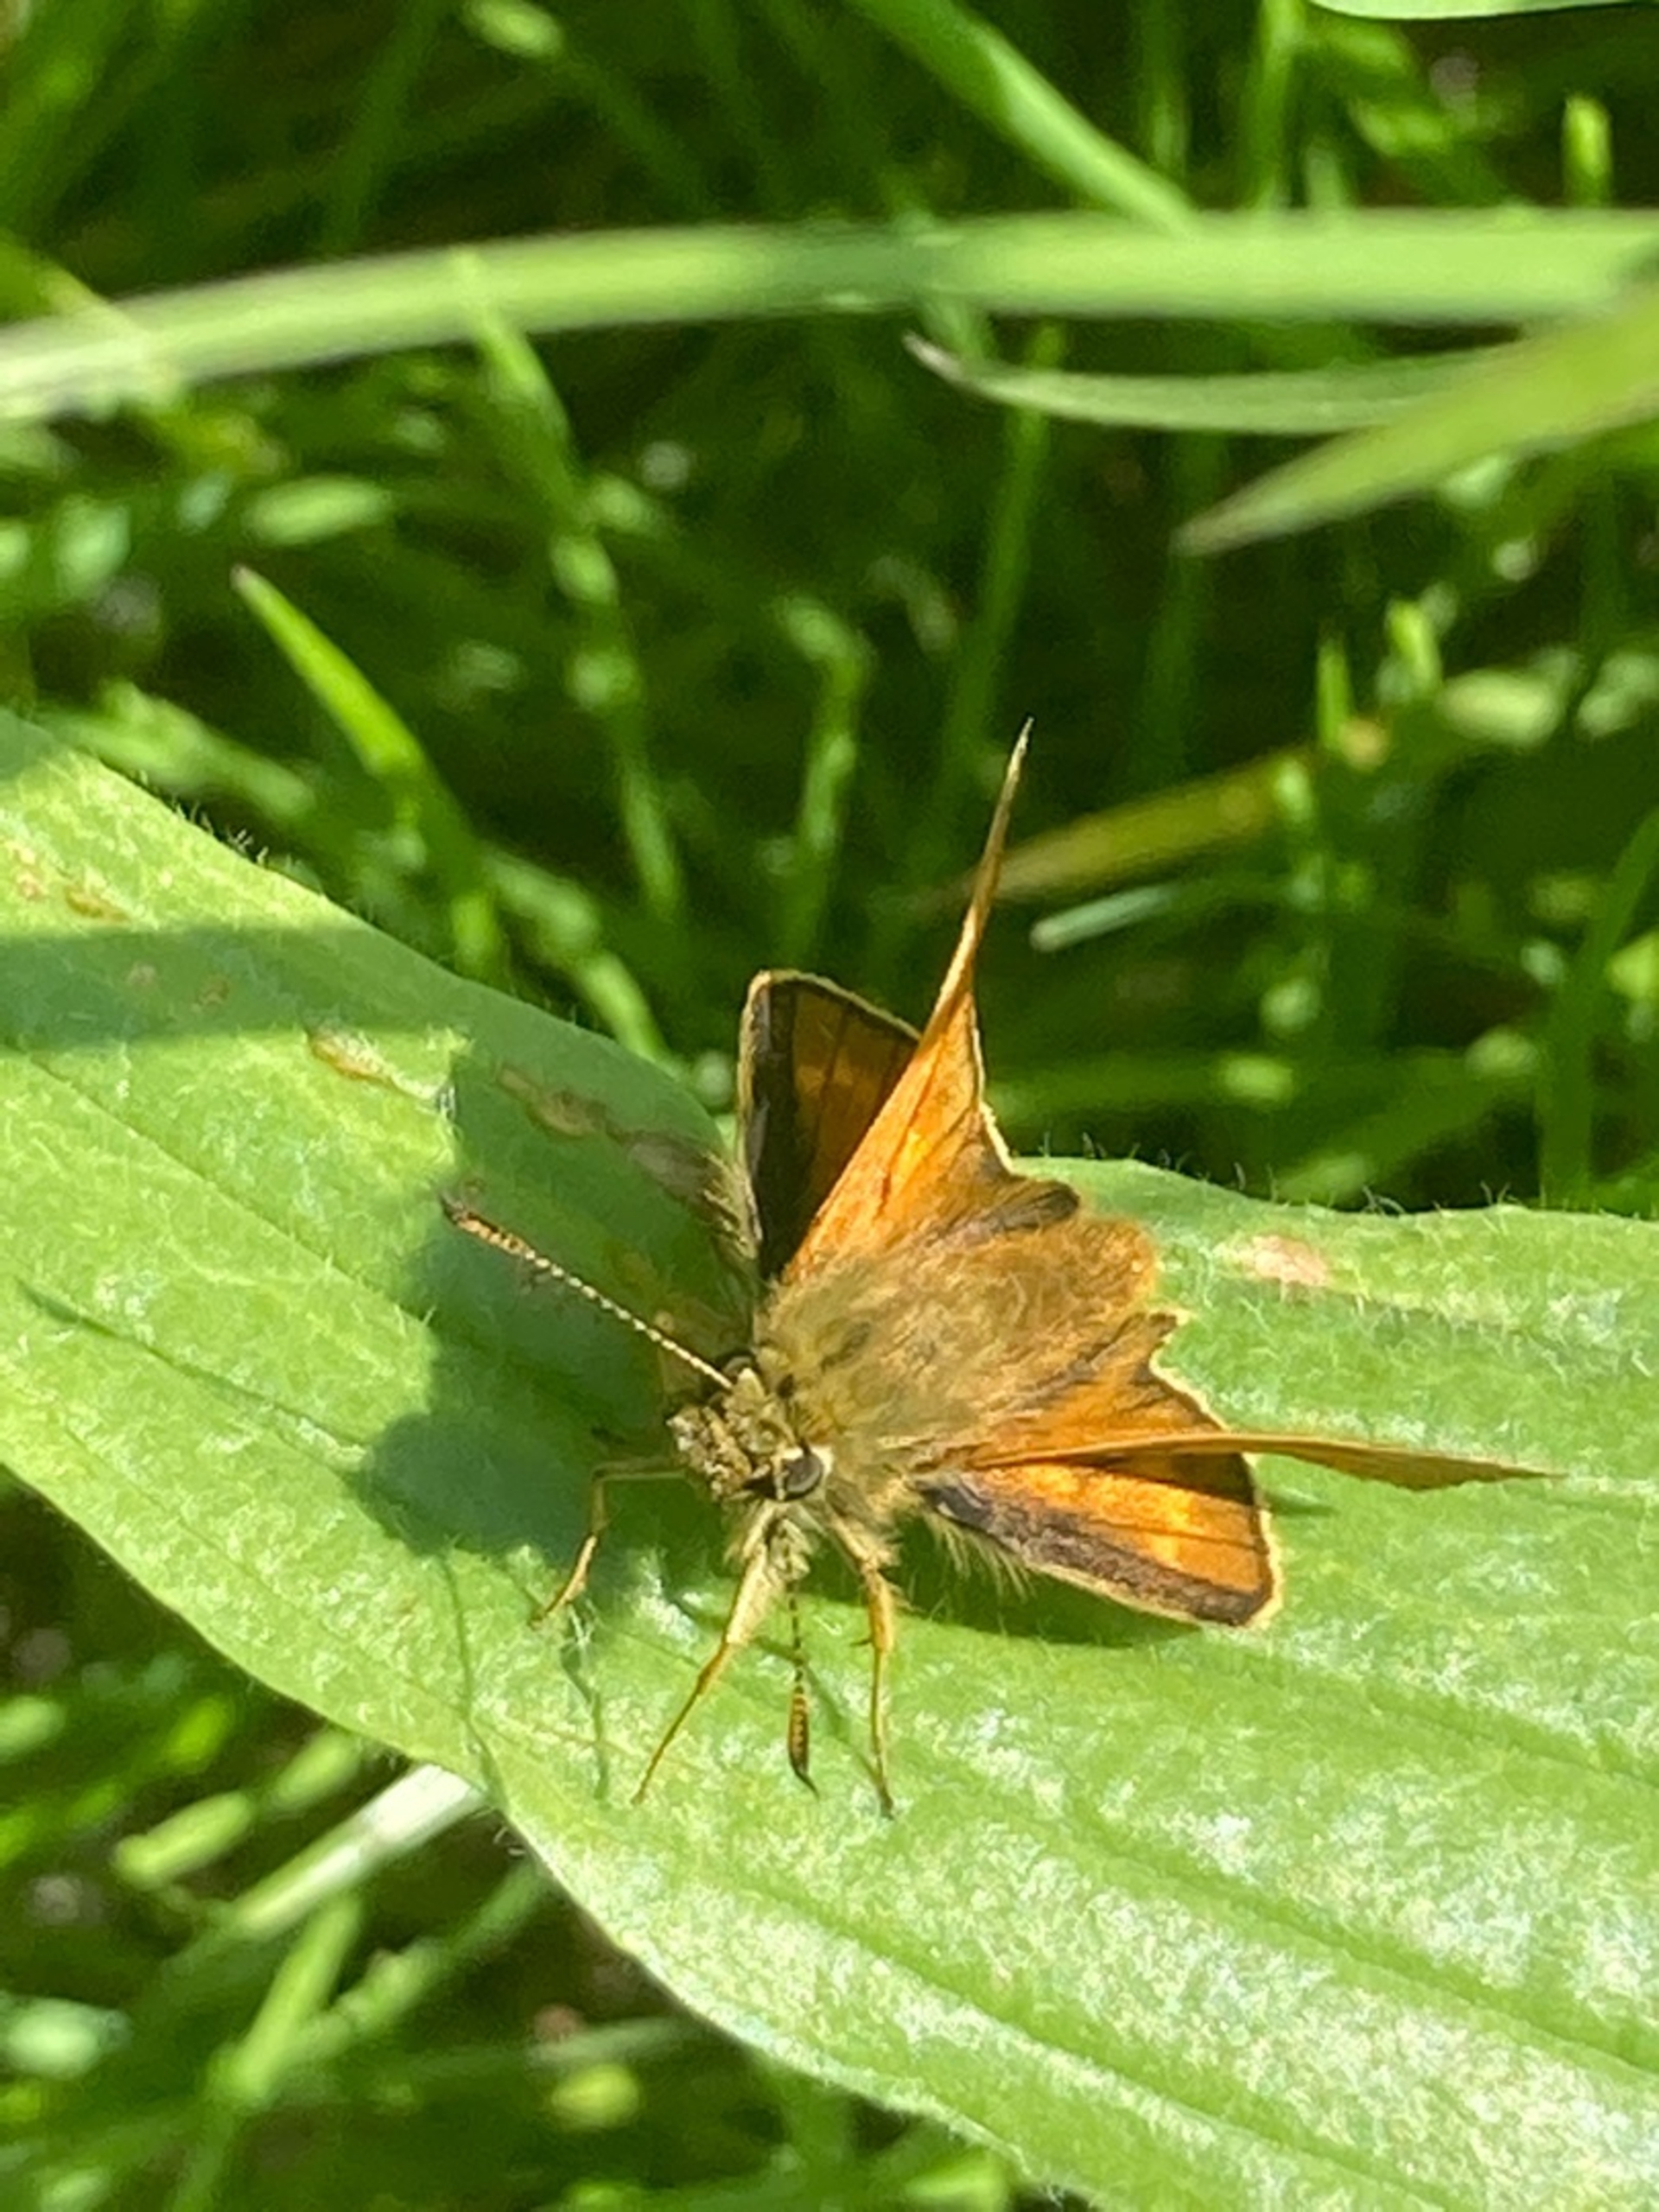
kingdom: Animalia
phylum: Arthropoda
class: Insecta
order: Lepidoptera
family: Hesperiidae
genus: Ochlodes
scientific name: Ochlodes venata
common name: Stor bredpande
